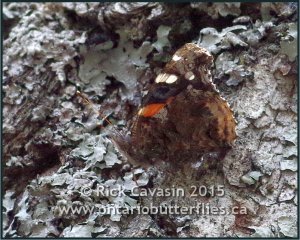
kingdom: Animalia
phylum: Arthropoda
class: Insecta
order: Lepidoptera
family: Nymphalidae
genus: Vanessa
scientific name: Vanessa atalanta
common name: Red Admiral
